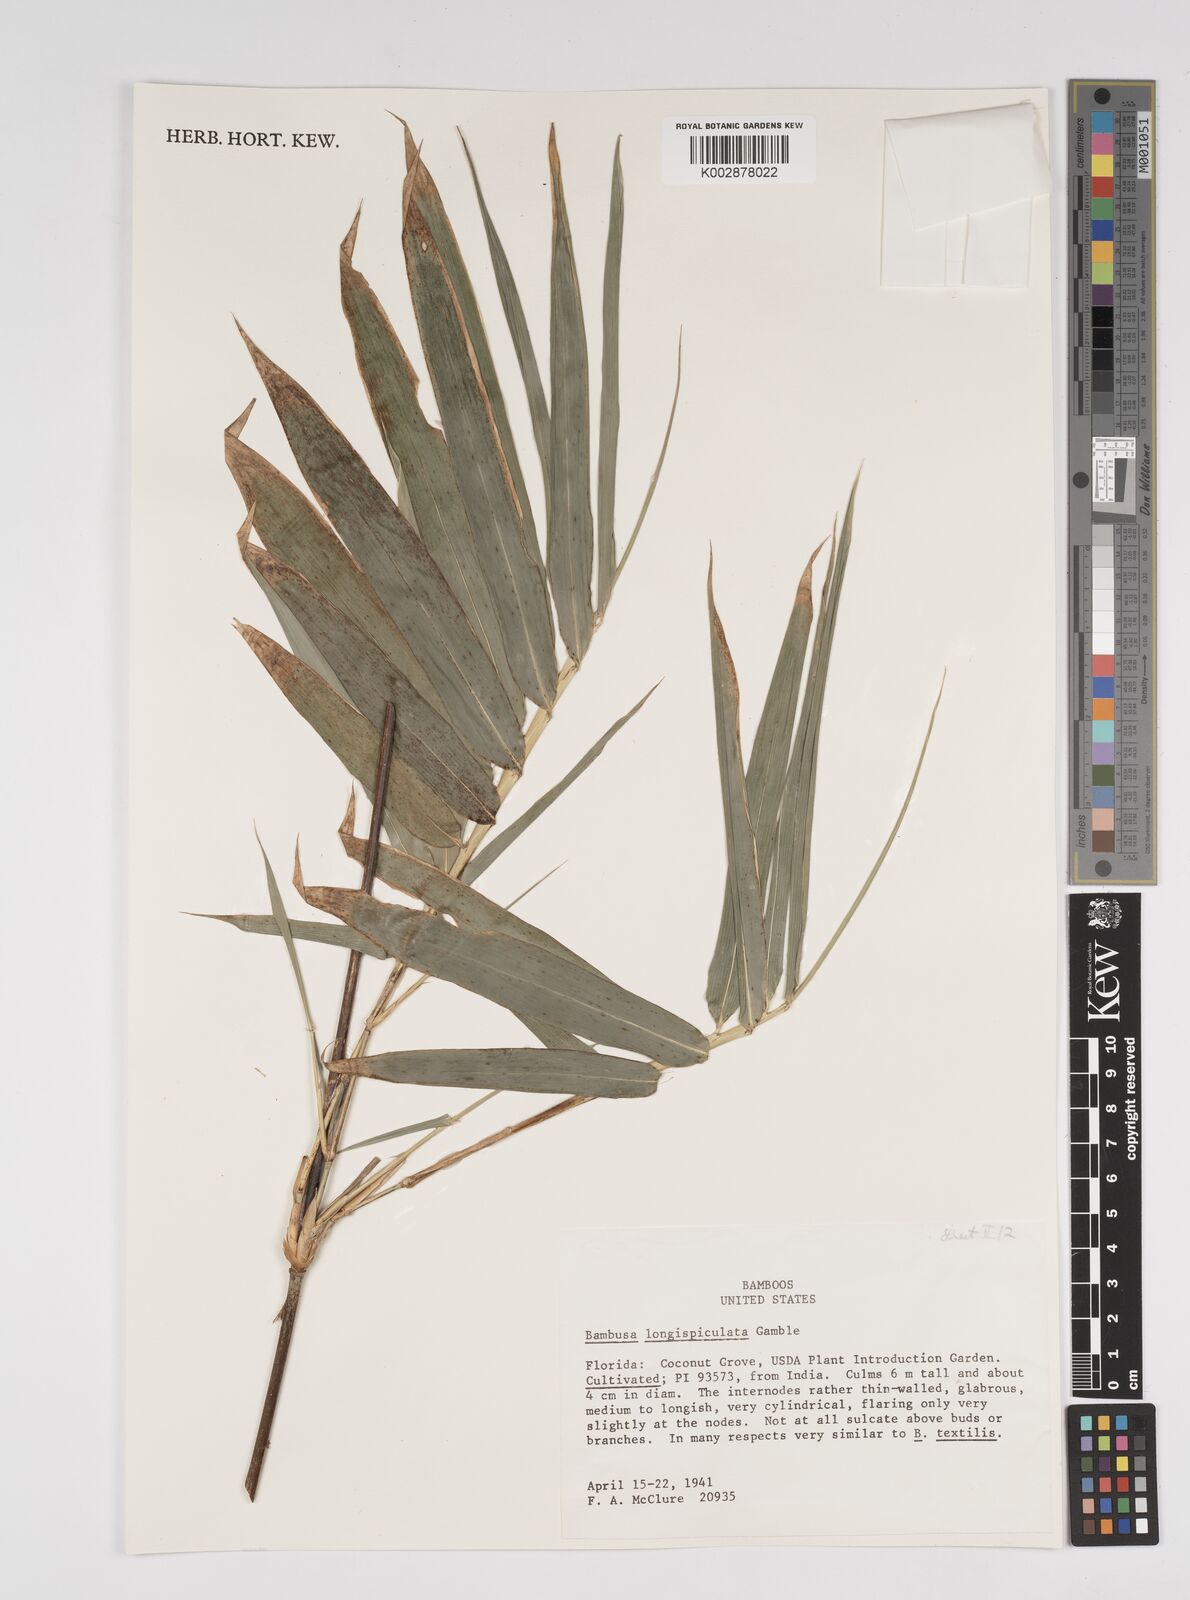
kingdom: Plantae
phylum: Tracheophyta
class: Liliopsida
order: Poales
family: Poaceae
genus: Bambusa
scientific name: Bambusa longispiculata
